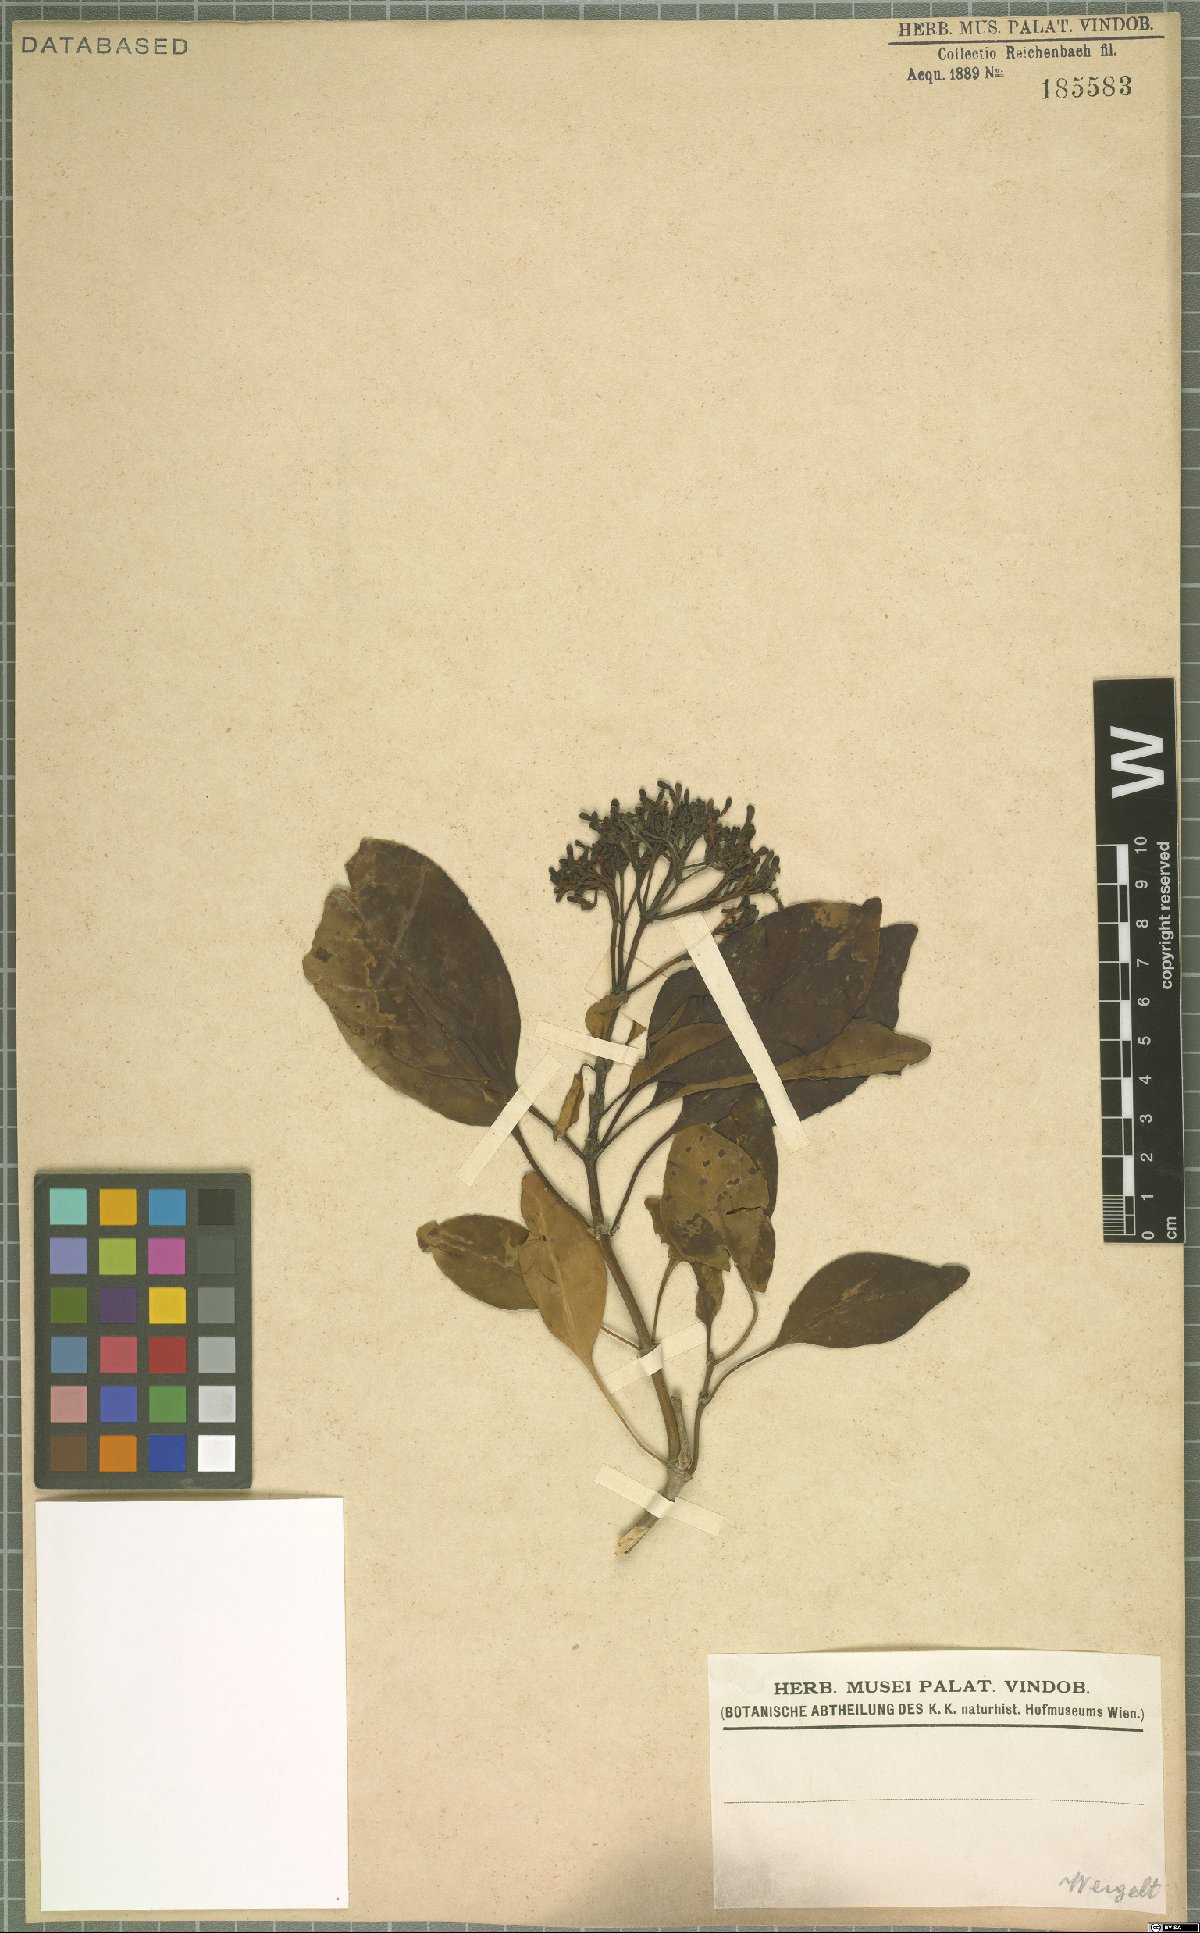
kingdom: Plantae
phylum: Tracheophyta
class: Magnoliopsida
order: Gentianales
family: Apocynaceae
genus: Ochrosia
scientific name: Ochrosia borbonica
